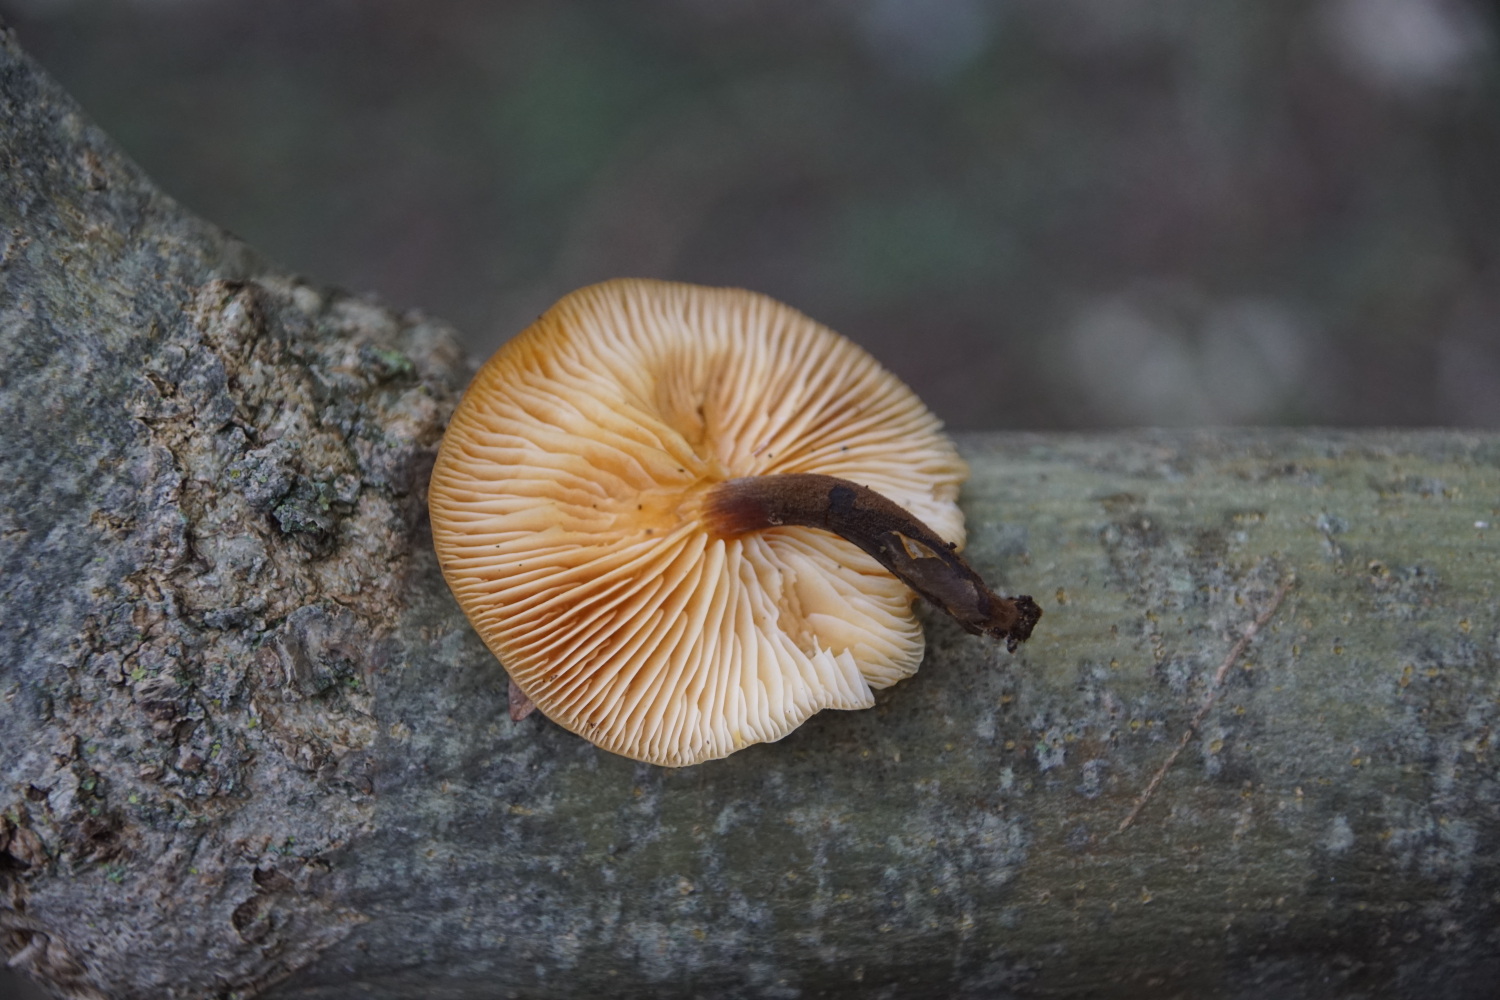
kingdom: Fungi
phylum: Basidiomycota
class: Agaricomycetes
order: Agaricales
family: Physalacriaceae
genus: Flammulina
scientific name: Flammulina velutipes
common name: gul fløjlsfod
